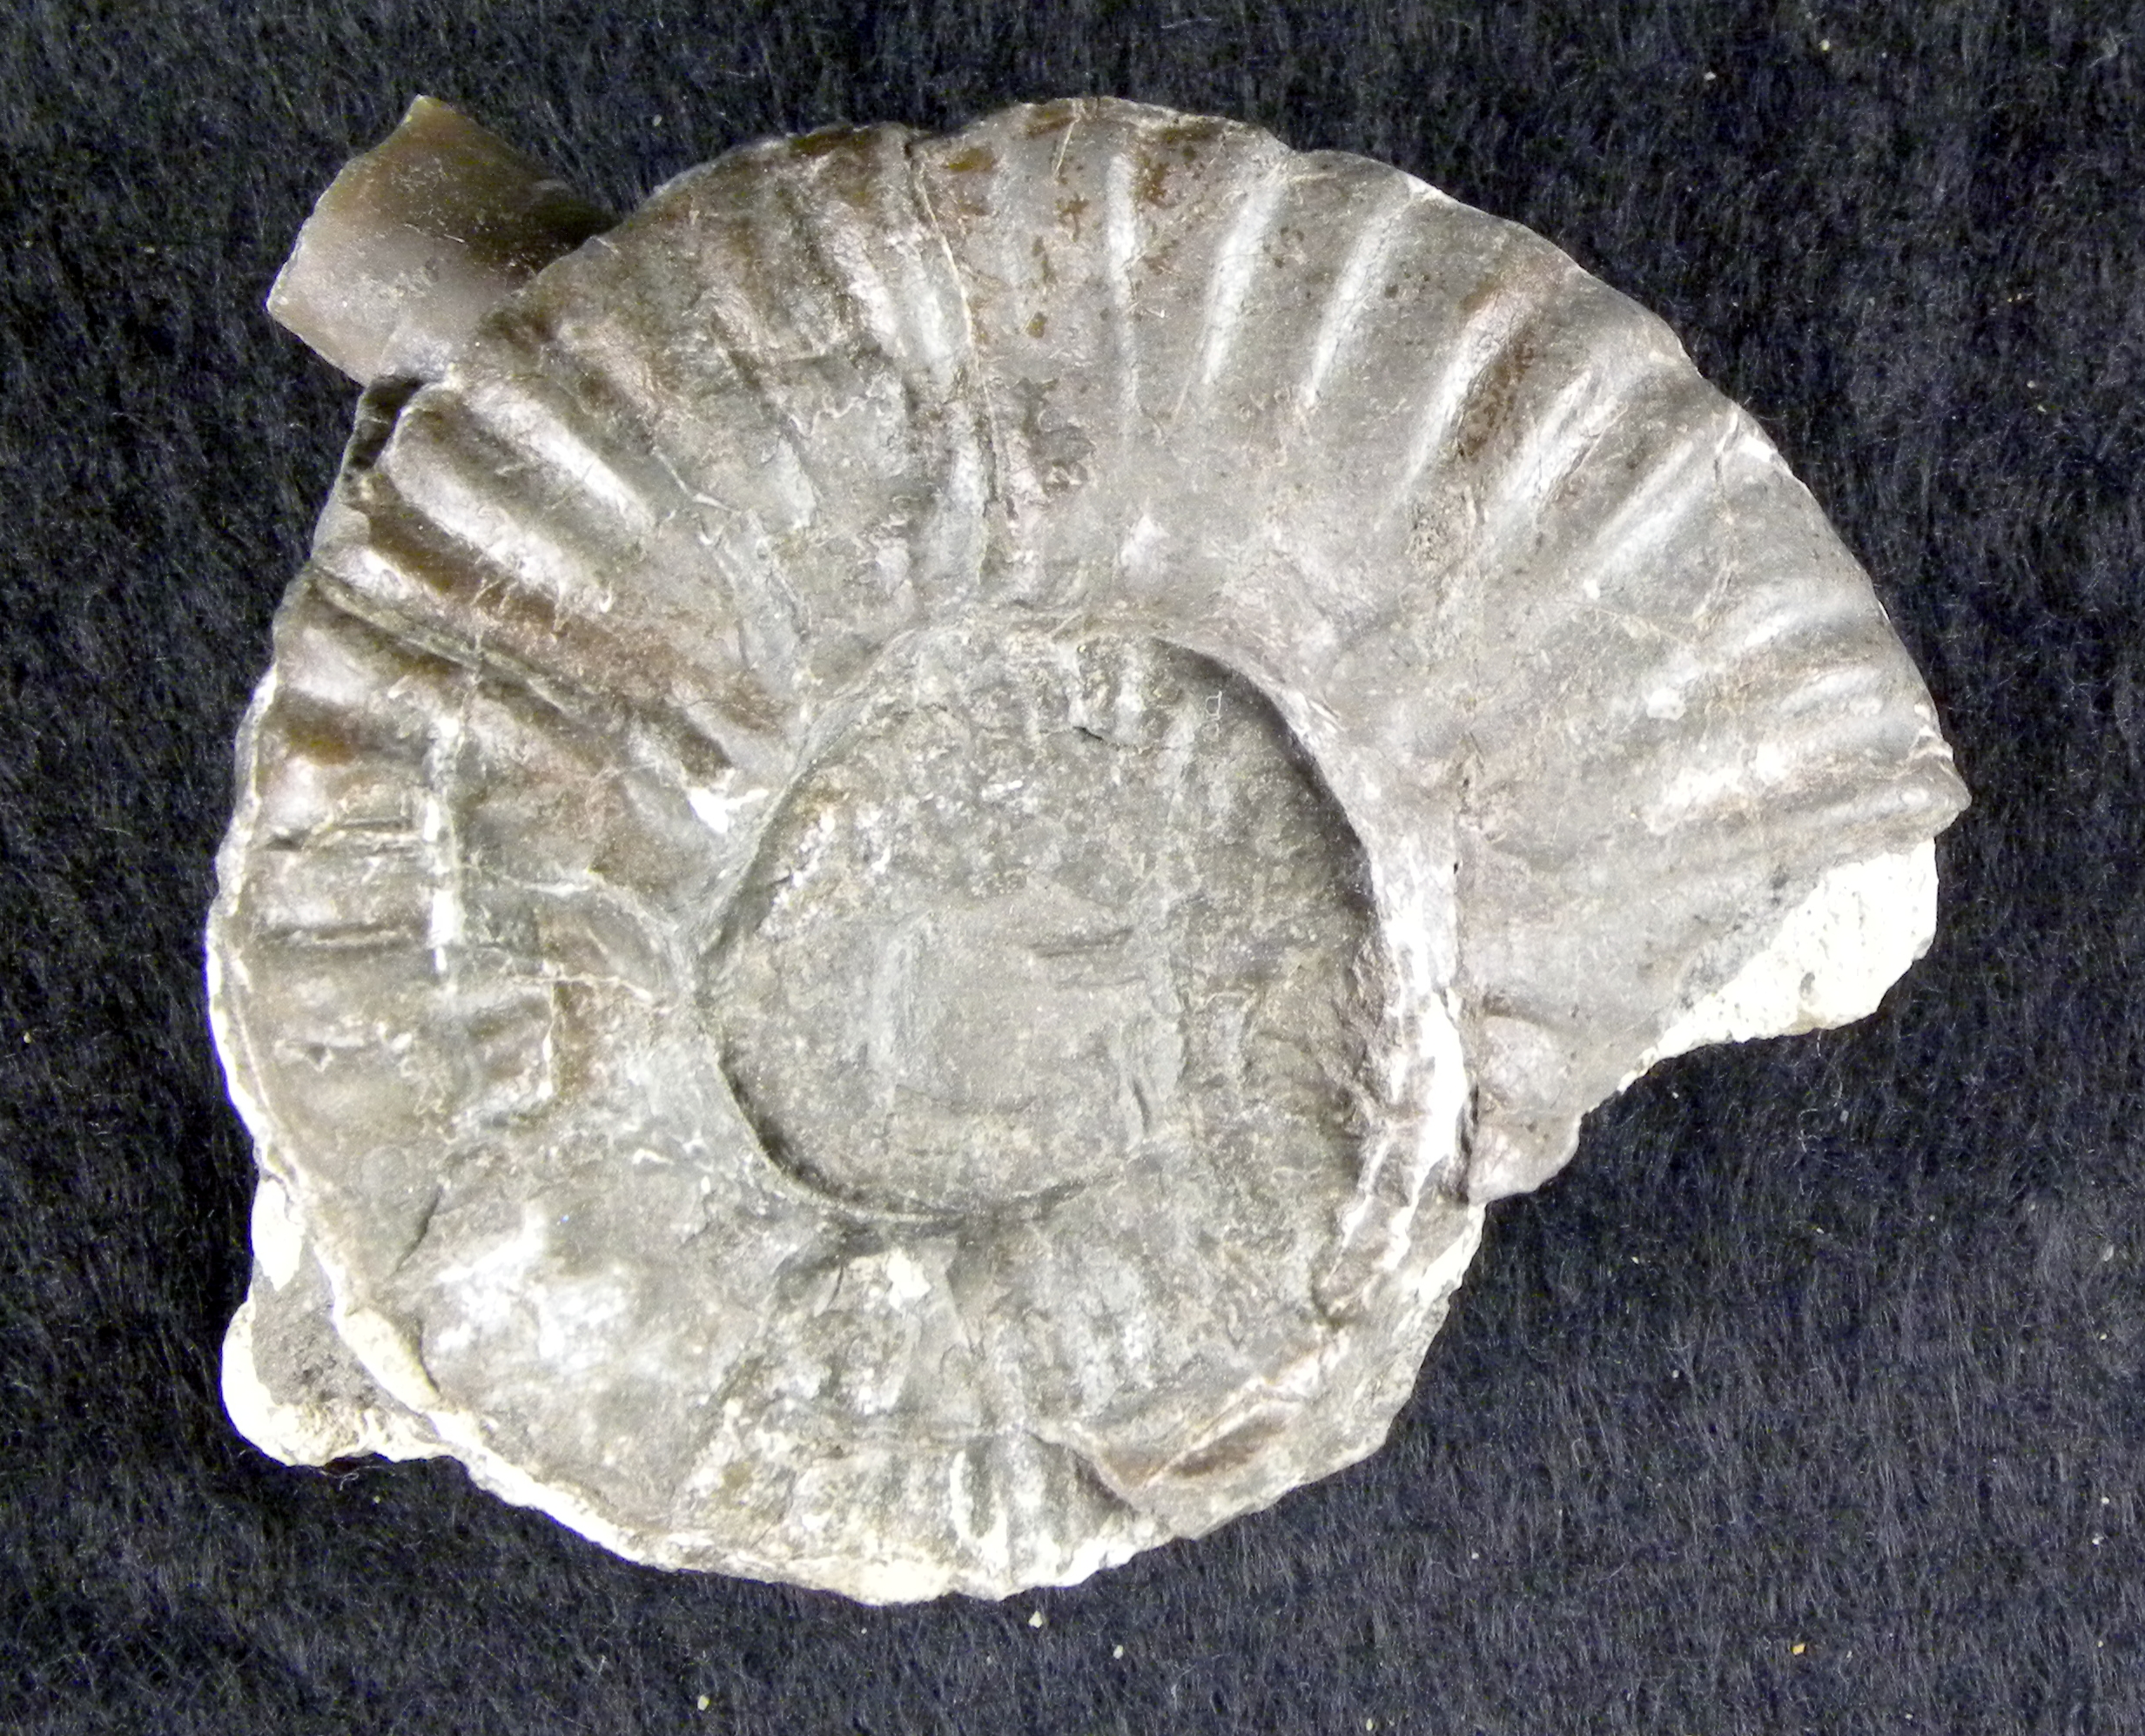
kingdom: Animalia
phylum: Mollusca
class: Cephalopoda
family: Phymatoceratidae
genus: Phymatoceras
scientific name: Phymatoceras malagma
